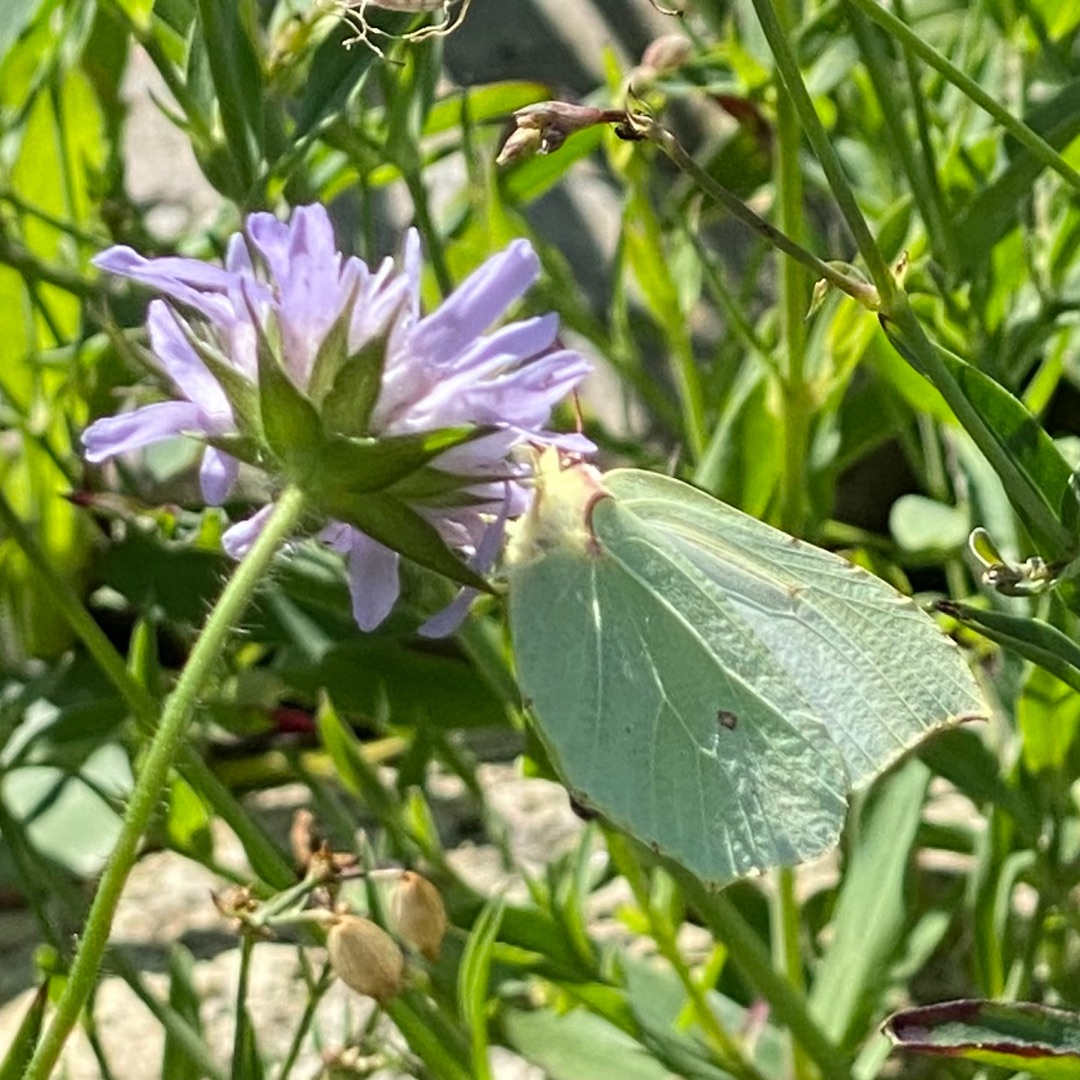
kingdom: Animalia
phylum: Arthropoda
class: Insecta
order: Lepidoptera
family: Pieridae
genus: Gonepteryx
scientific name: Gonepteryx rhamni
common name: Citronsommerfugl
